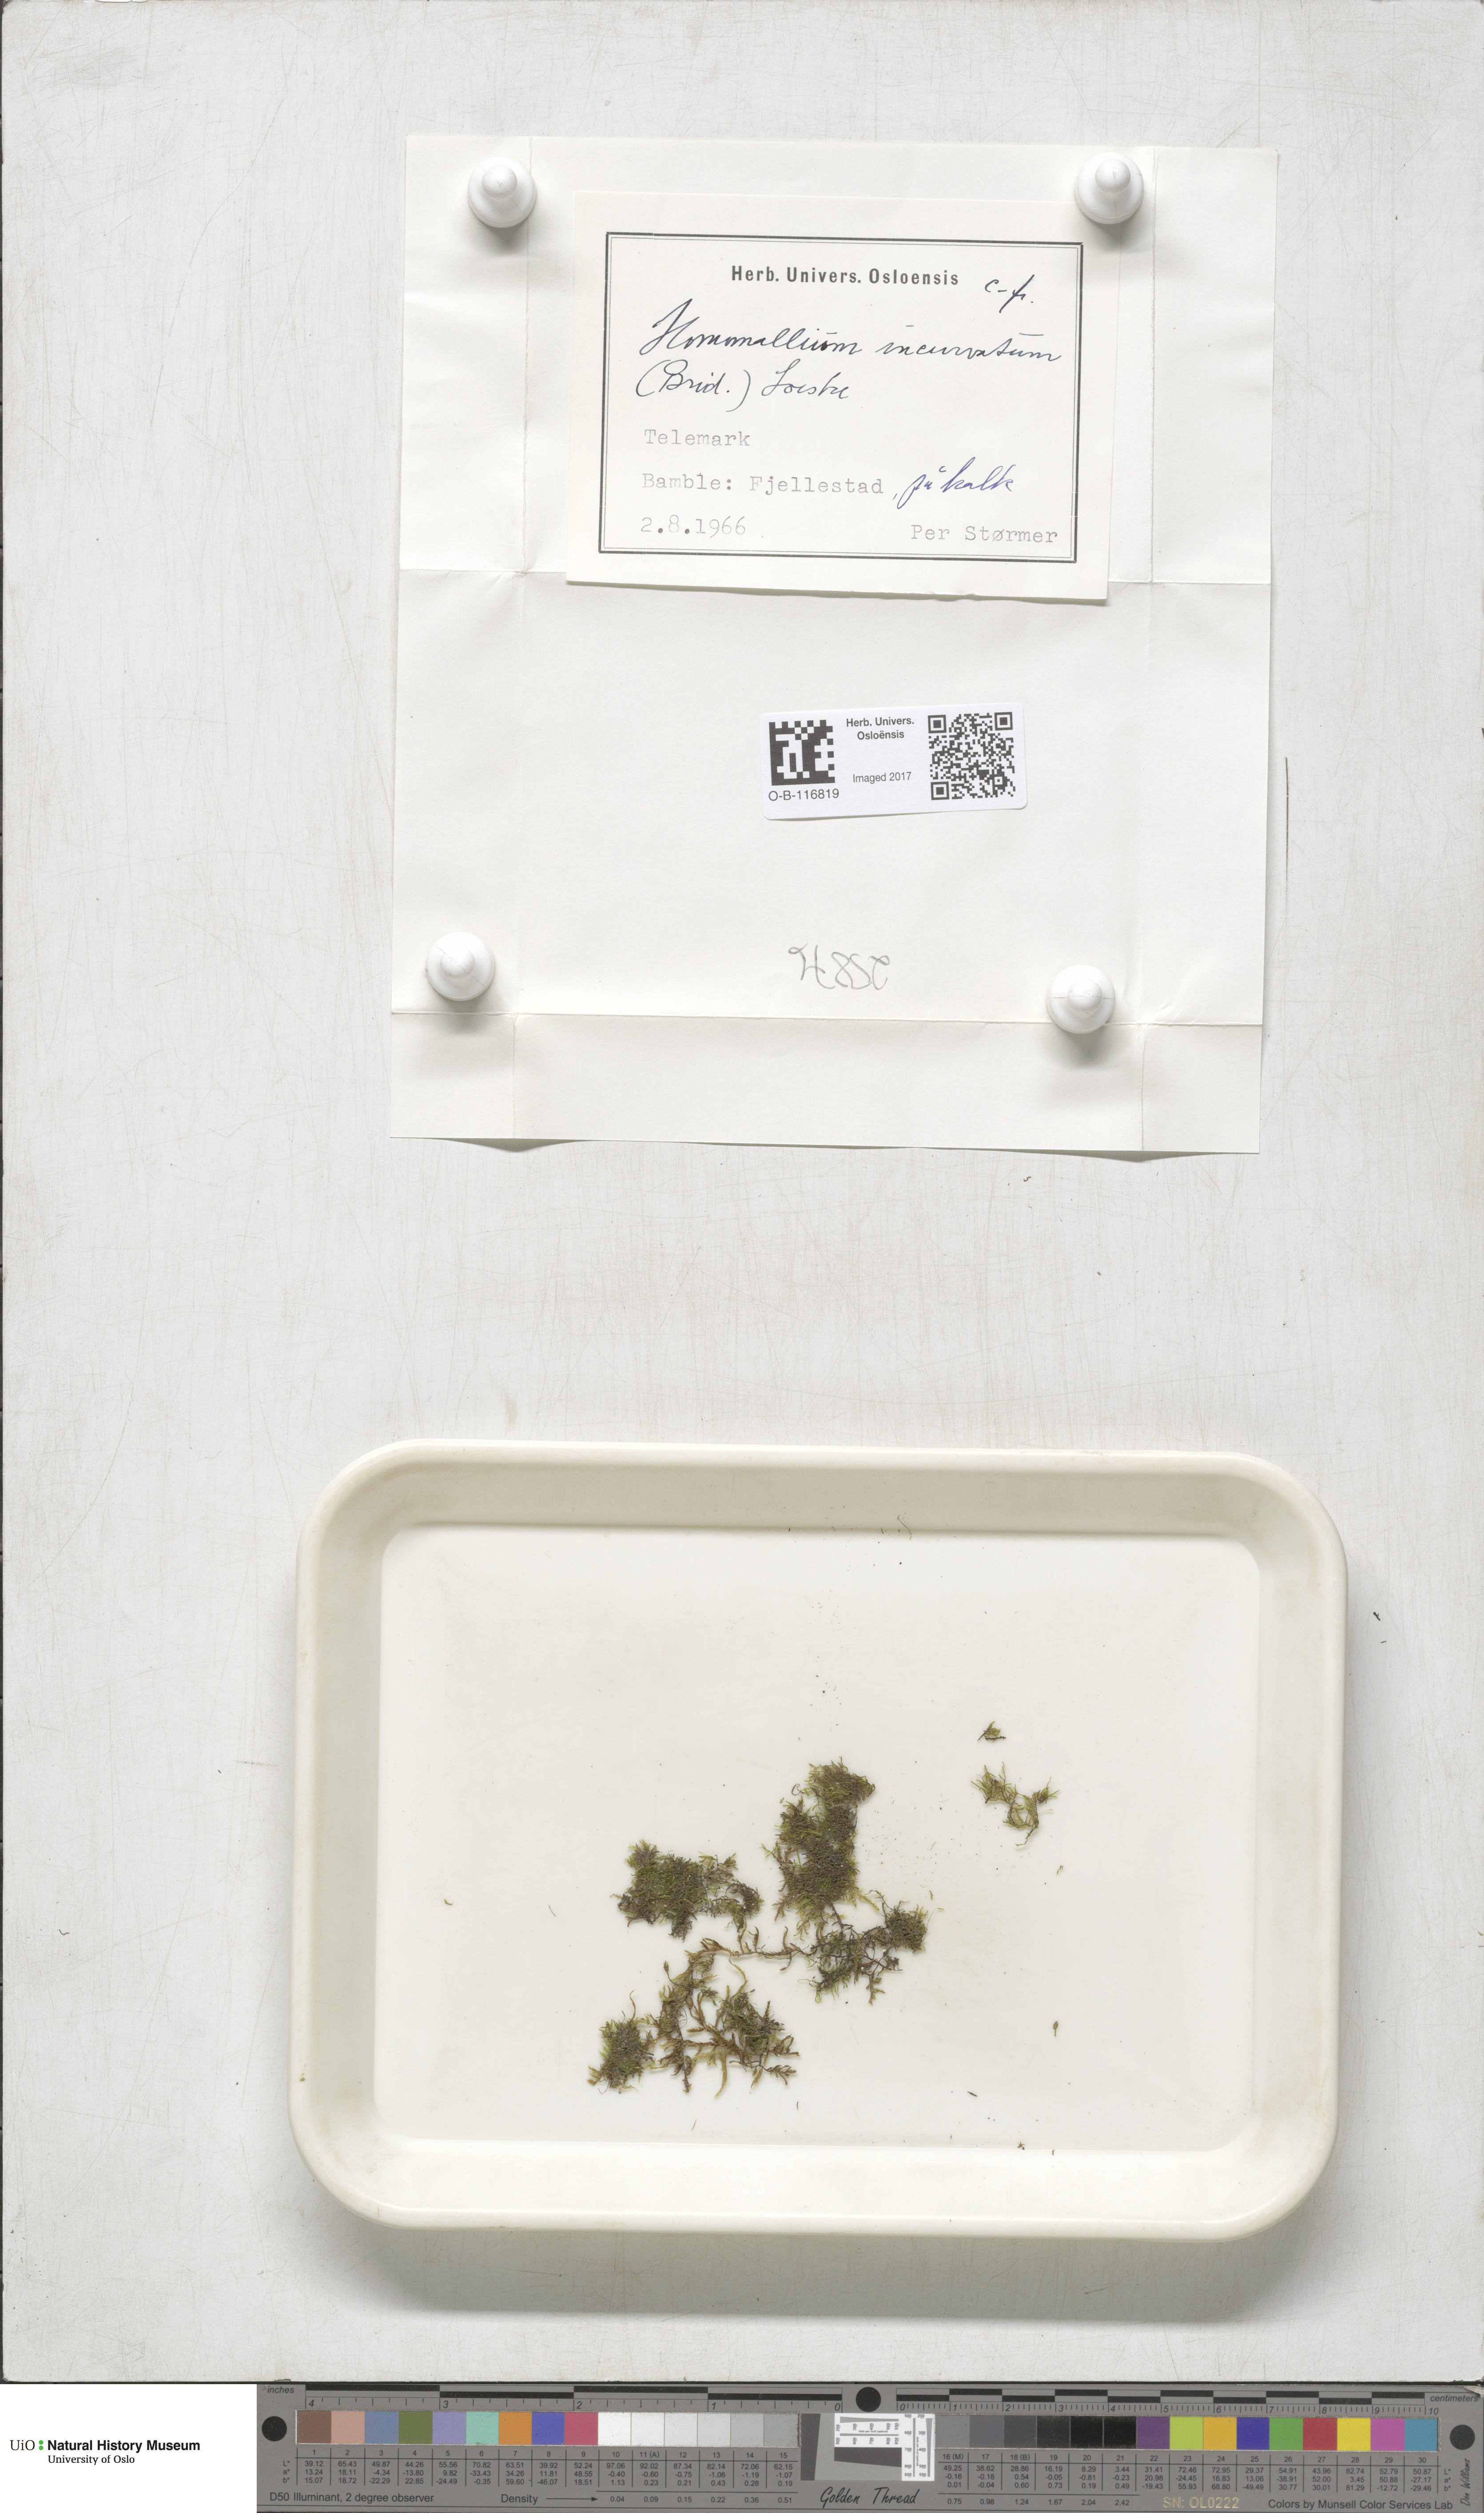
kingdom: Plantae
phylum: Bryophyta
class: Bryopsida
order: Hypnales
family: Pylaisiaceae
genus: Homomallium
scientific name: Homomallium incurvatum
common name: Incurved feather-moss
